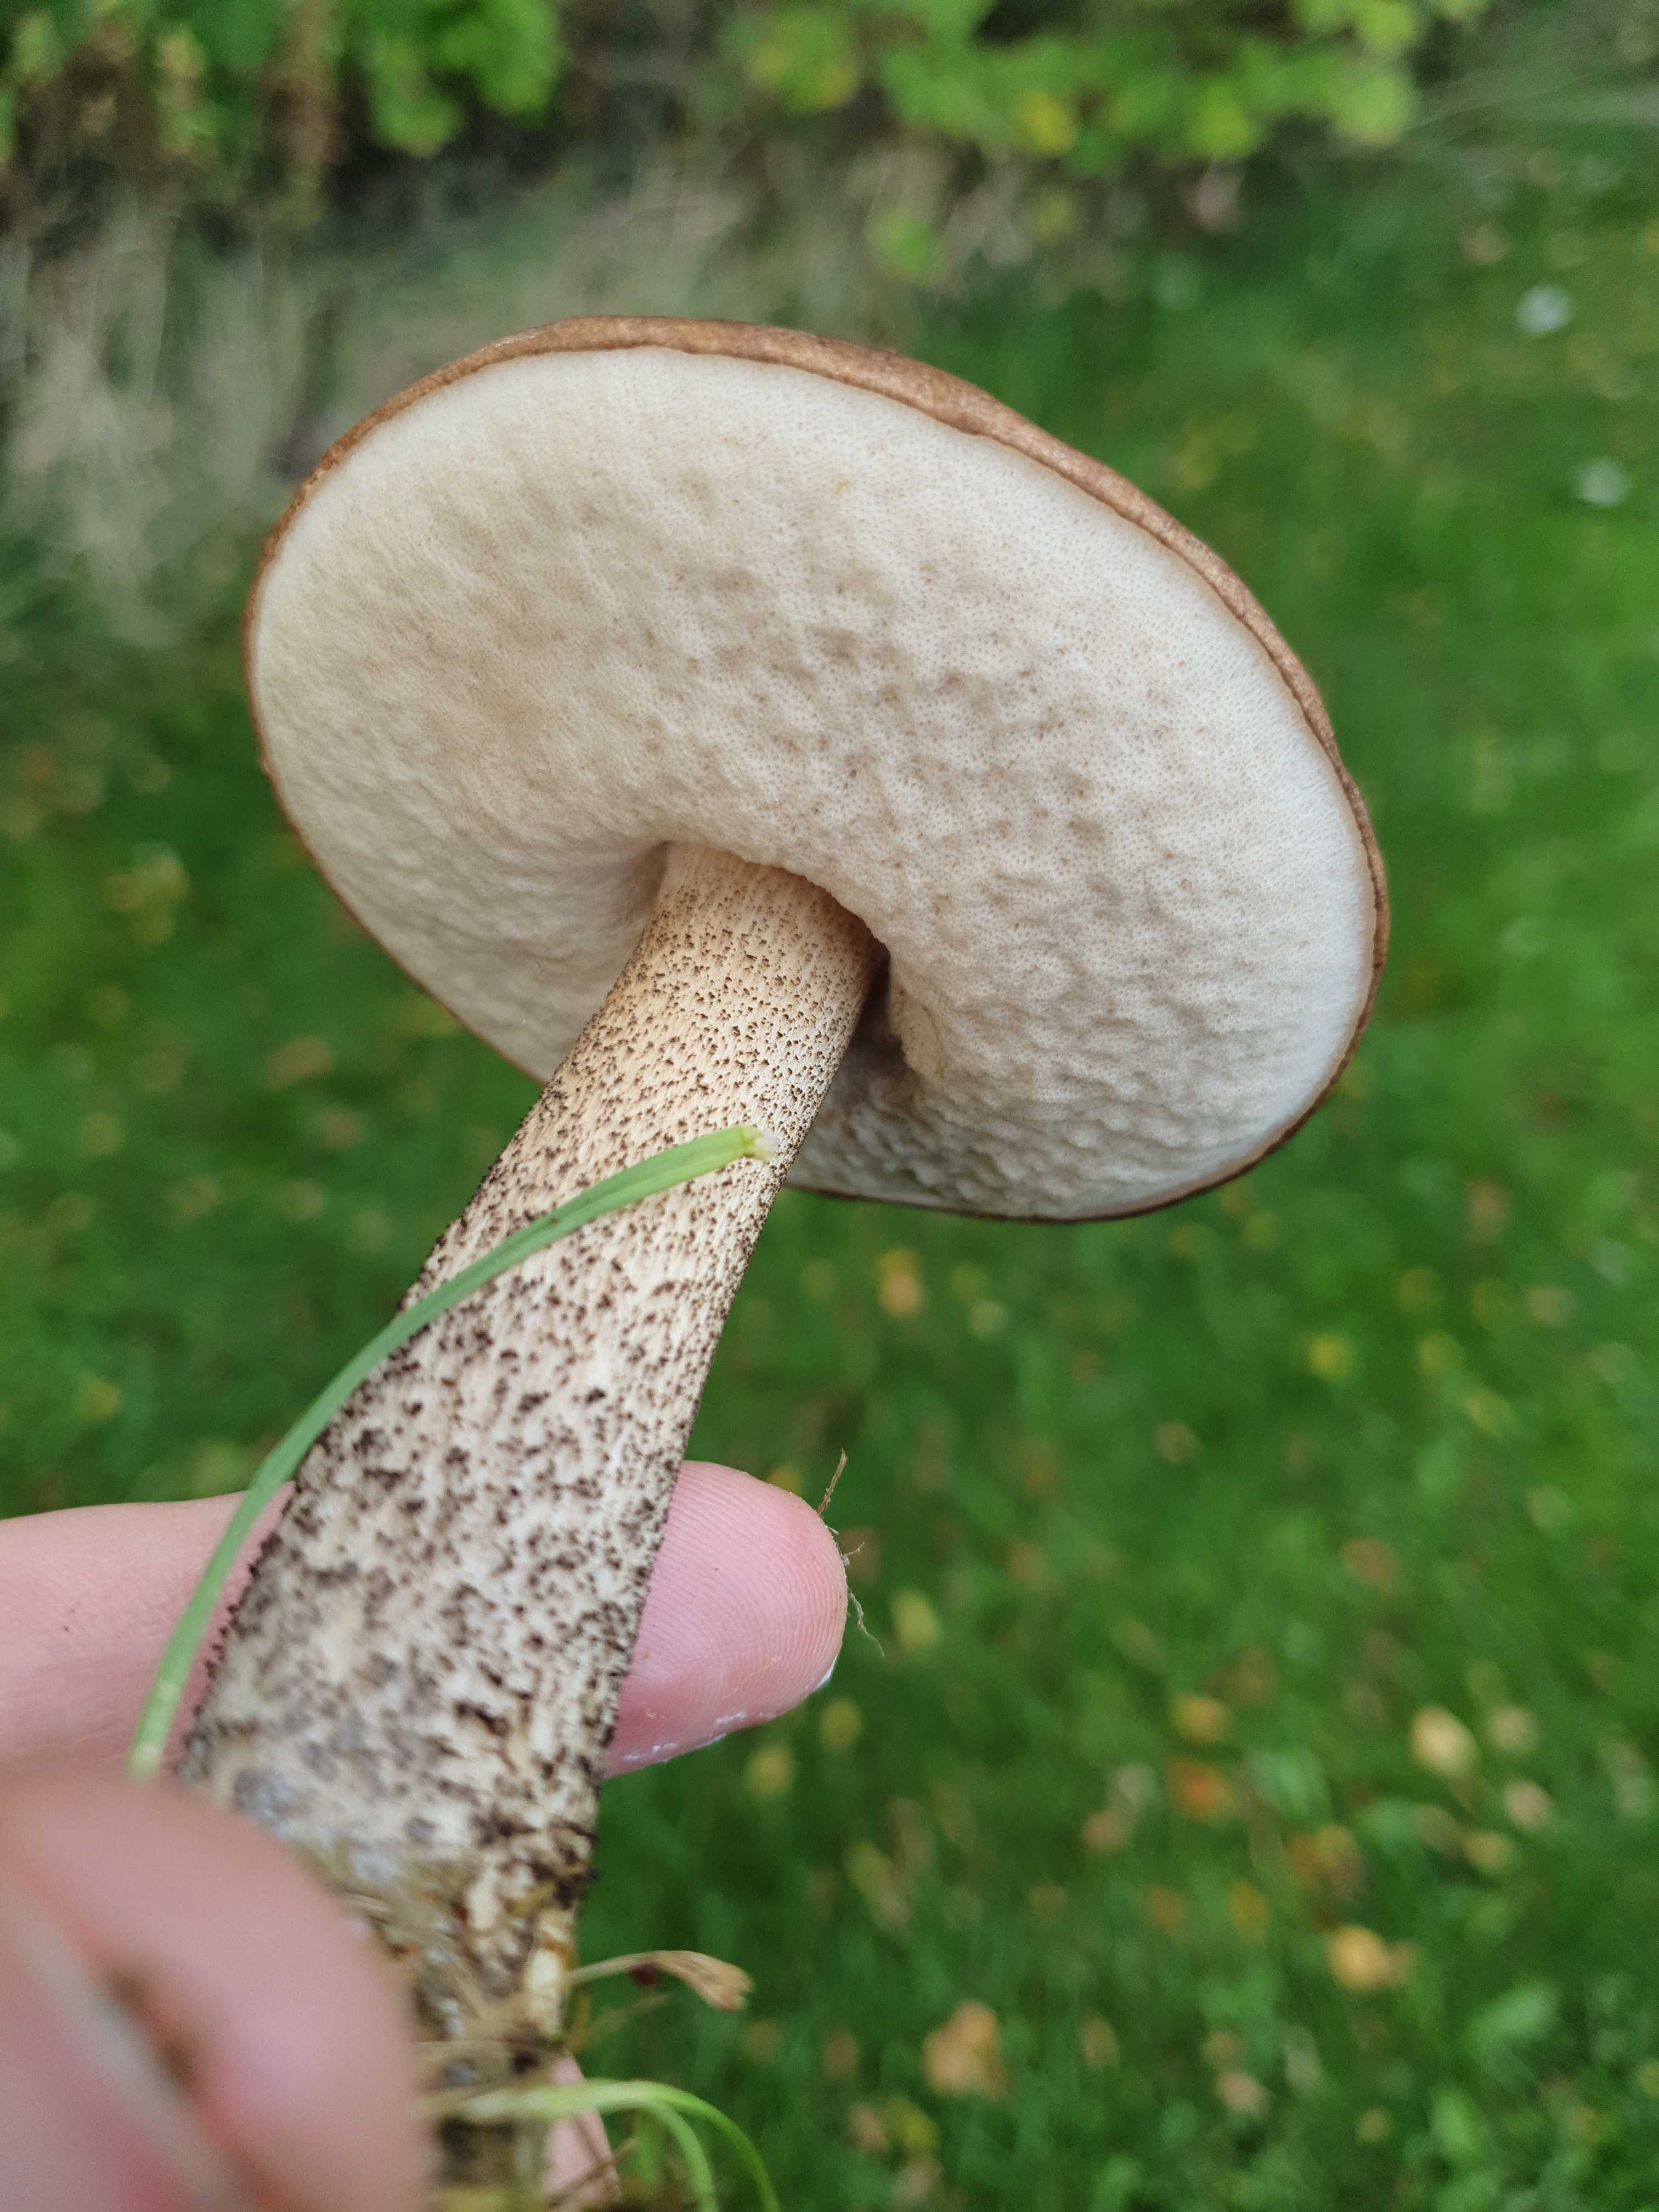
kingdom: Fungi
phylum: Basidiomycota
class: Agaricomycetes
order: Boletales
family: Boletaceae
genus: Leccinum
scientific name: Leccinum scabrum
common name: brun skælrørhat
